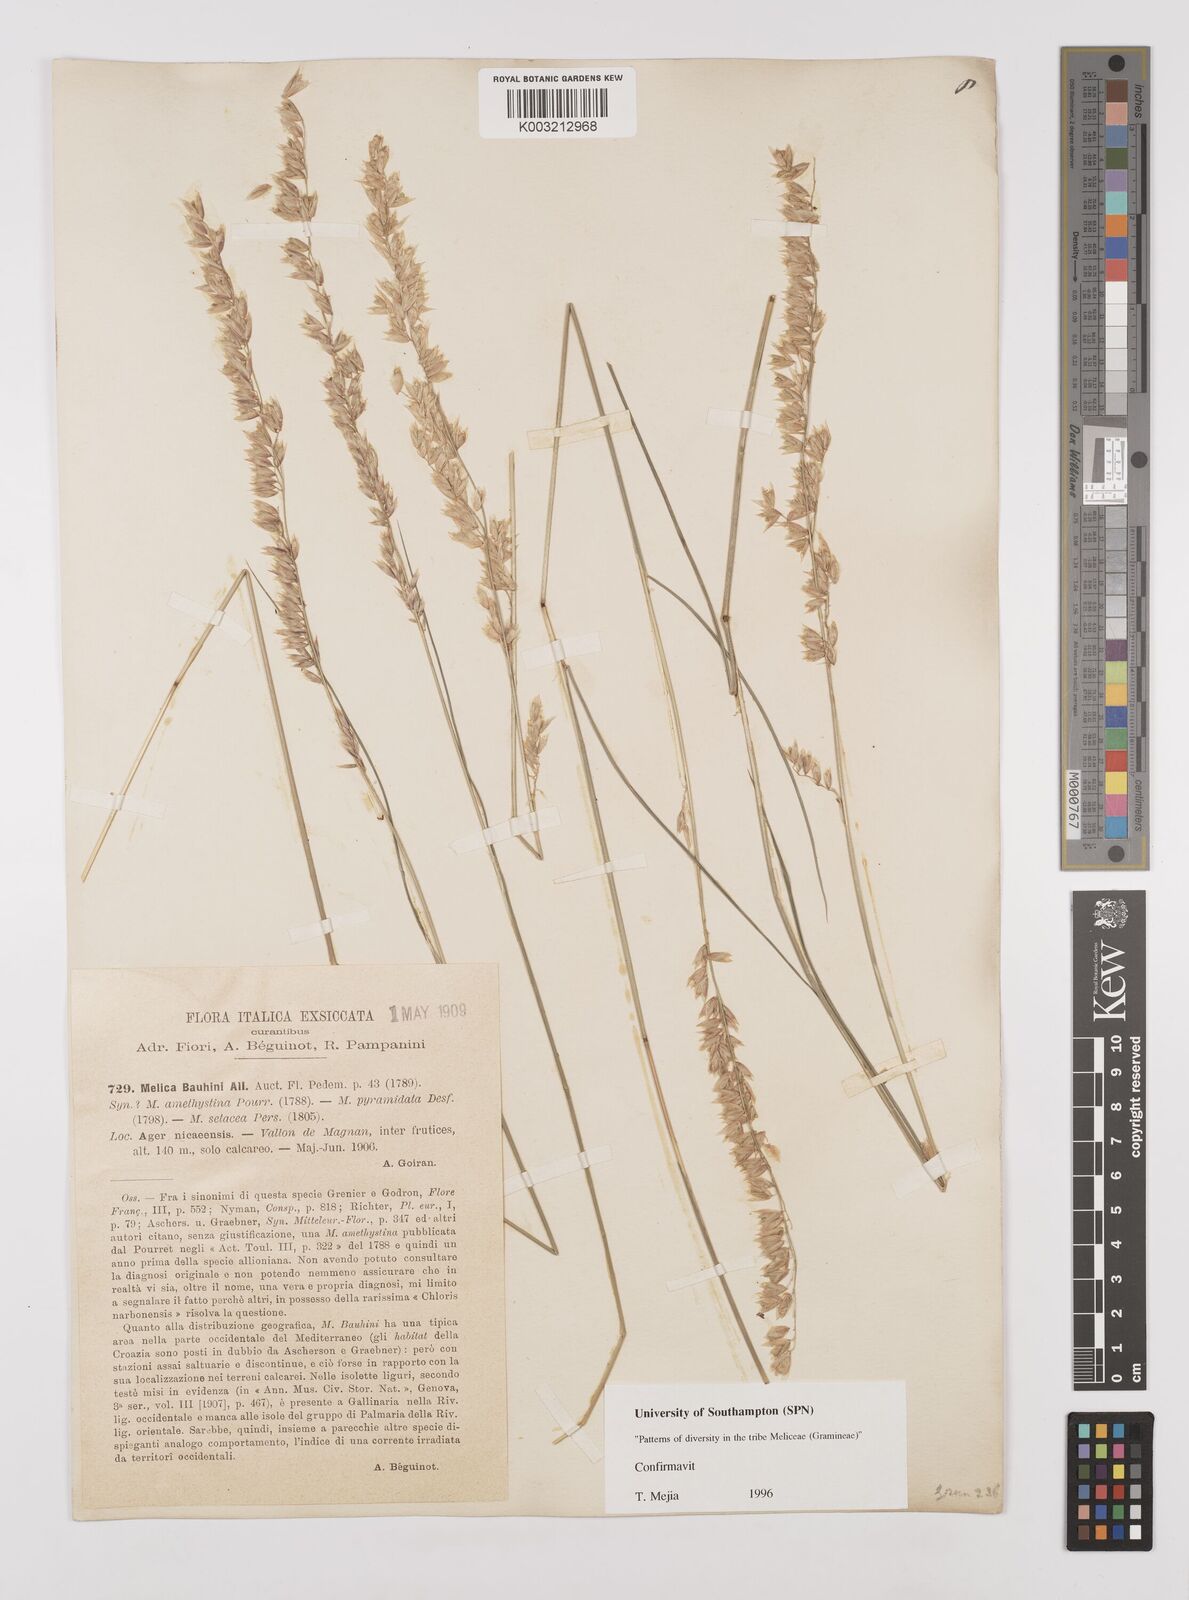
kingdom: Plantae
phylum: Tracheophyta
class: Liliopsida
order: Poales
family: Poaceae
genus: Melica
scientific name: Melica amethystina
